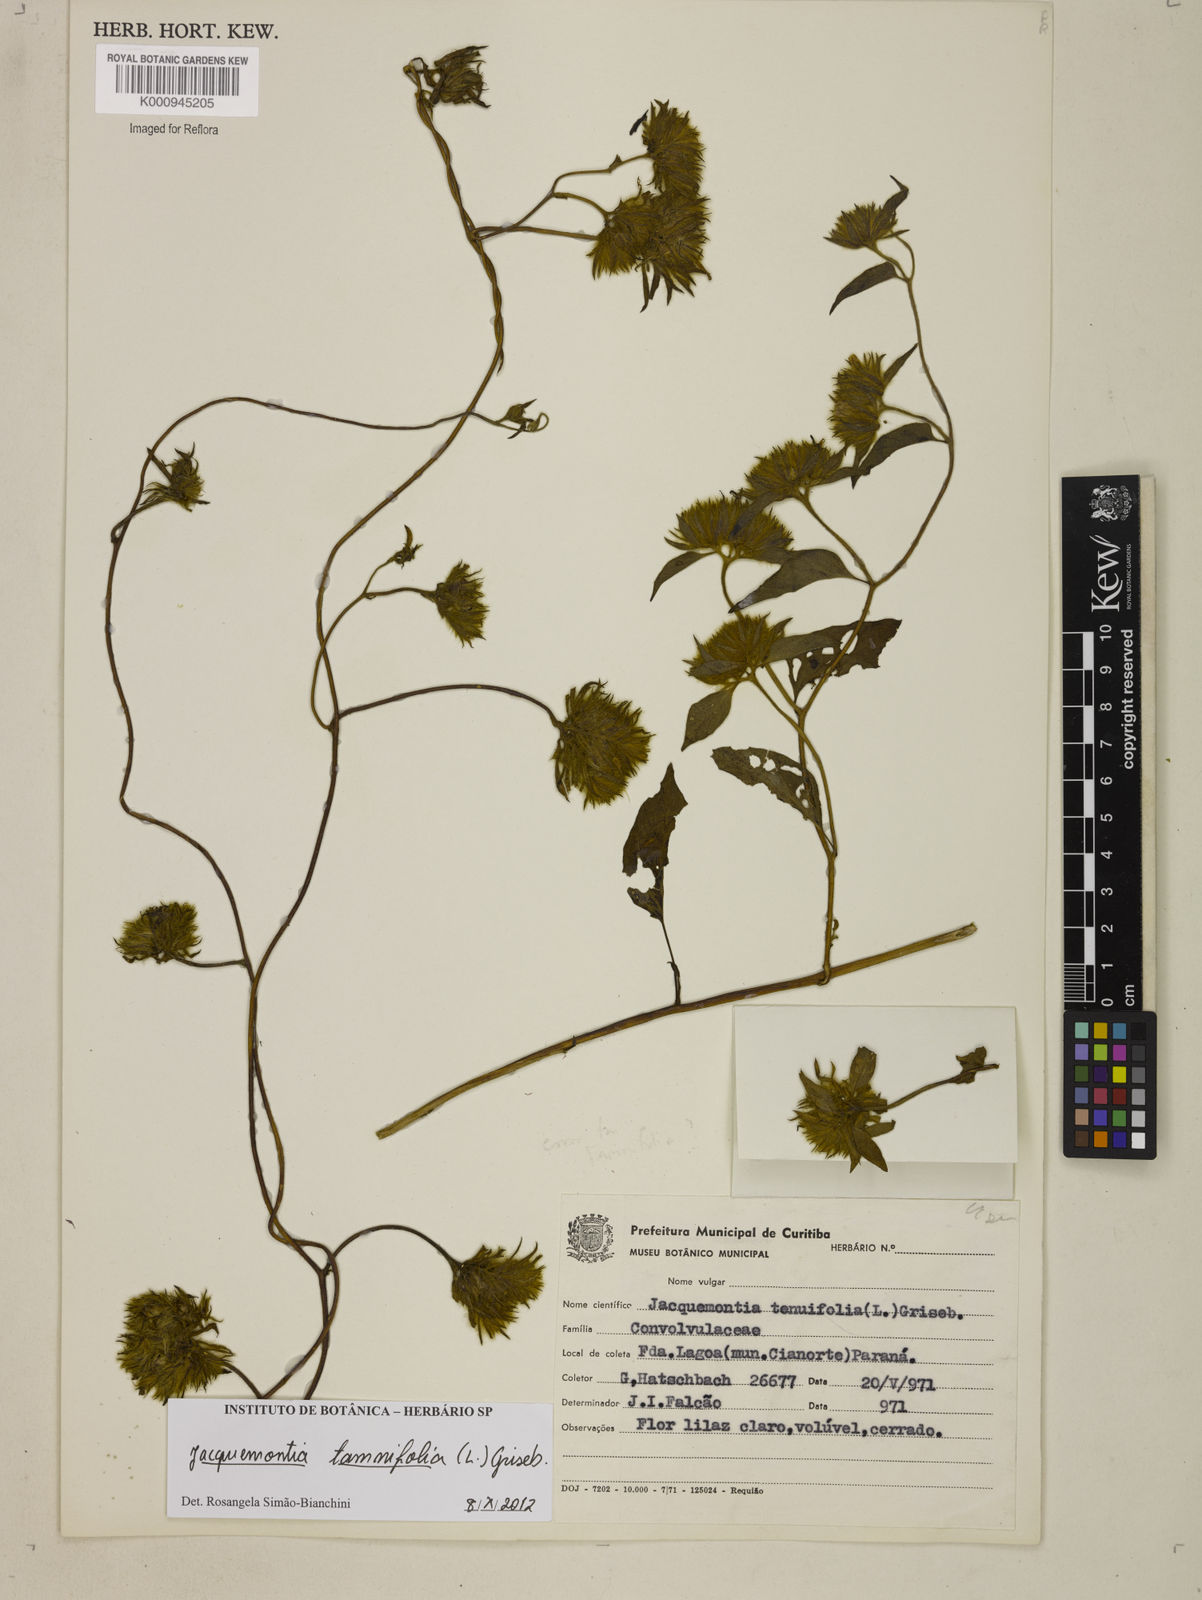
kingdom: Plantae
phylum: Tracheophyta
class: Magnoliopsida
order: Solanales
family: Convolvulaceae
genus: Jacquemontia
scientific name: Jacquemontia tamnifolia
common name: Hairy clustervine
